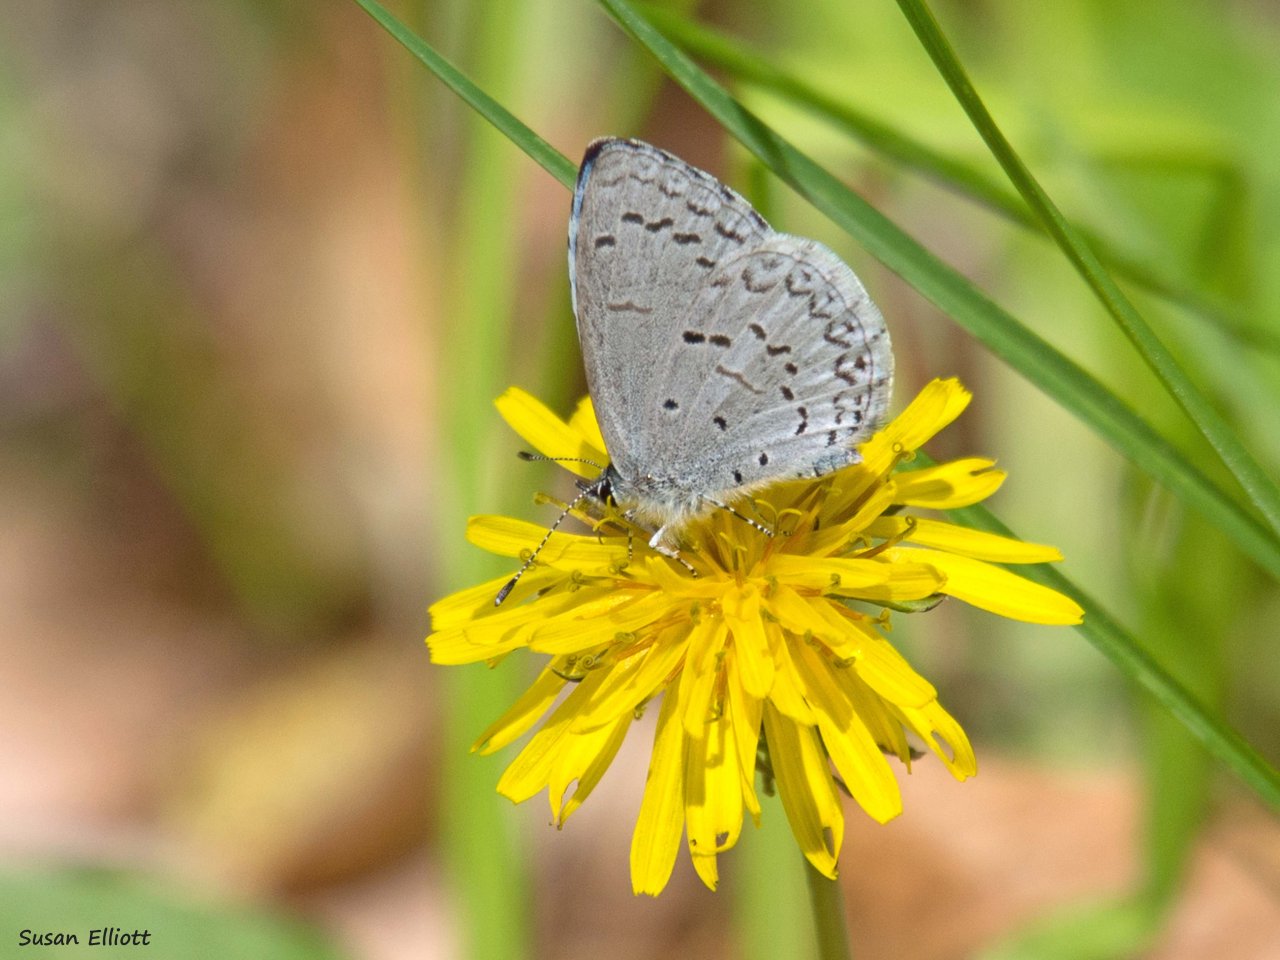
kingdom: Animalia
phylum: Arthropoda
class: Insecta
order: Lepidoptera
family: Lycaenidae
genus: Celastrina
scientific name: Celastrina lucia
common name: Northern Spring Azure
